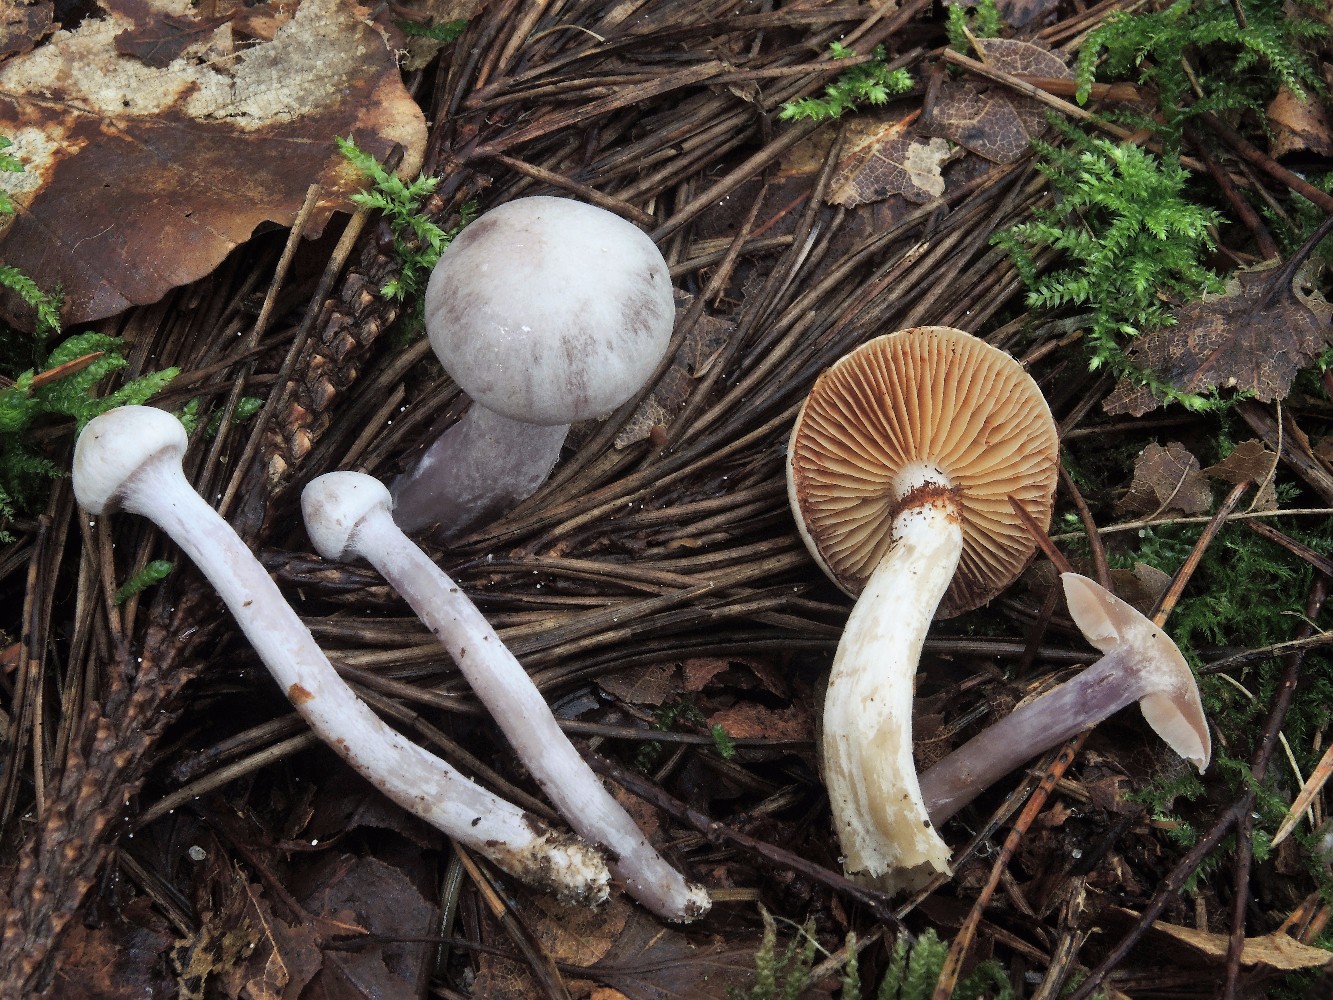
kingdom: Fungi
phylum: Basidiomycota
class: Agaricomycetes
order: Agaricales
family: Cortinariaceae
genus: Cortinarius
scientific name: Cortinarius acutispissipes
